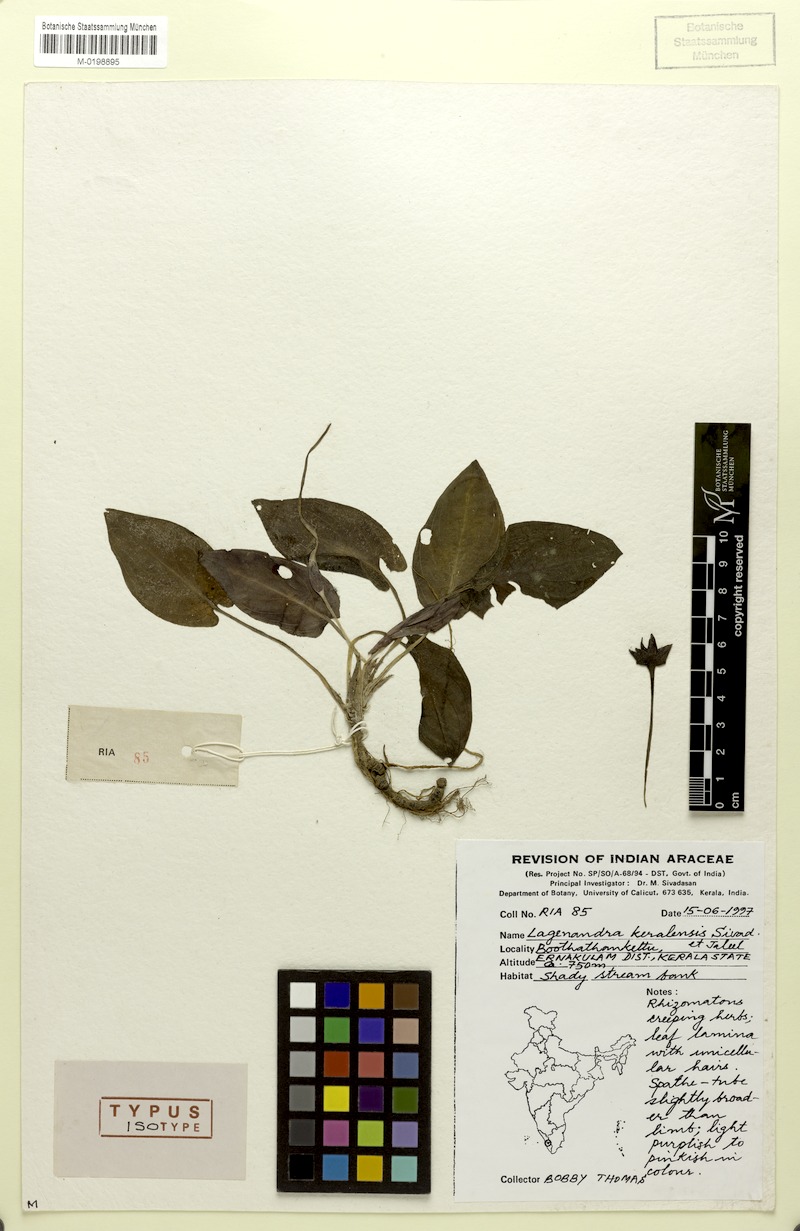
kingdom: Plantae
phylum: Tracheophyta
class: Liliopsida
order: Alismatales
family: Araceae
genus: Lagenandra
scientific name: Lagenandra keralensis
